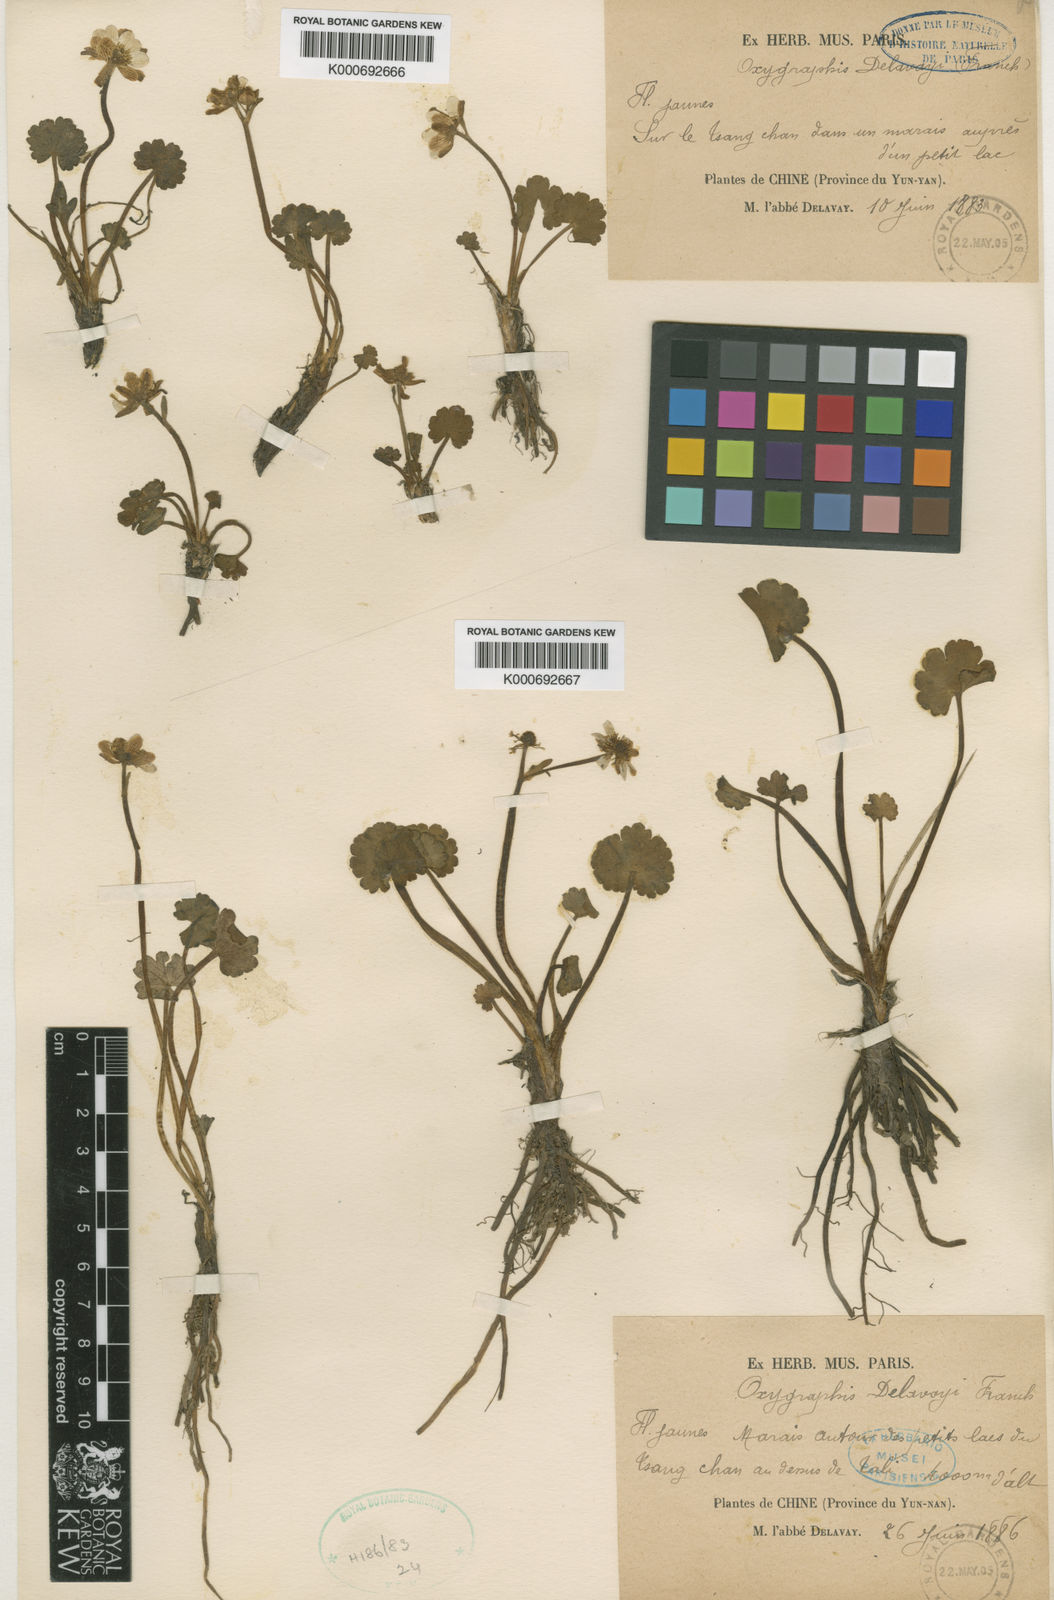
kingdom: Plantae
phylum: Tracheophyta
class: Magnoliopsida
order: Ranunculales
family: Ranunculaceae
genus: Ranunculus
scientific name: Ranunculus
